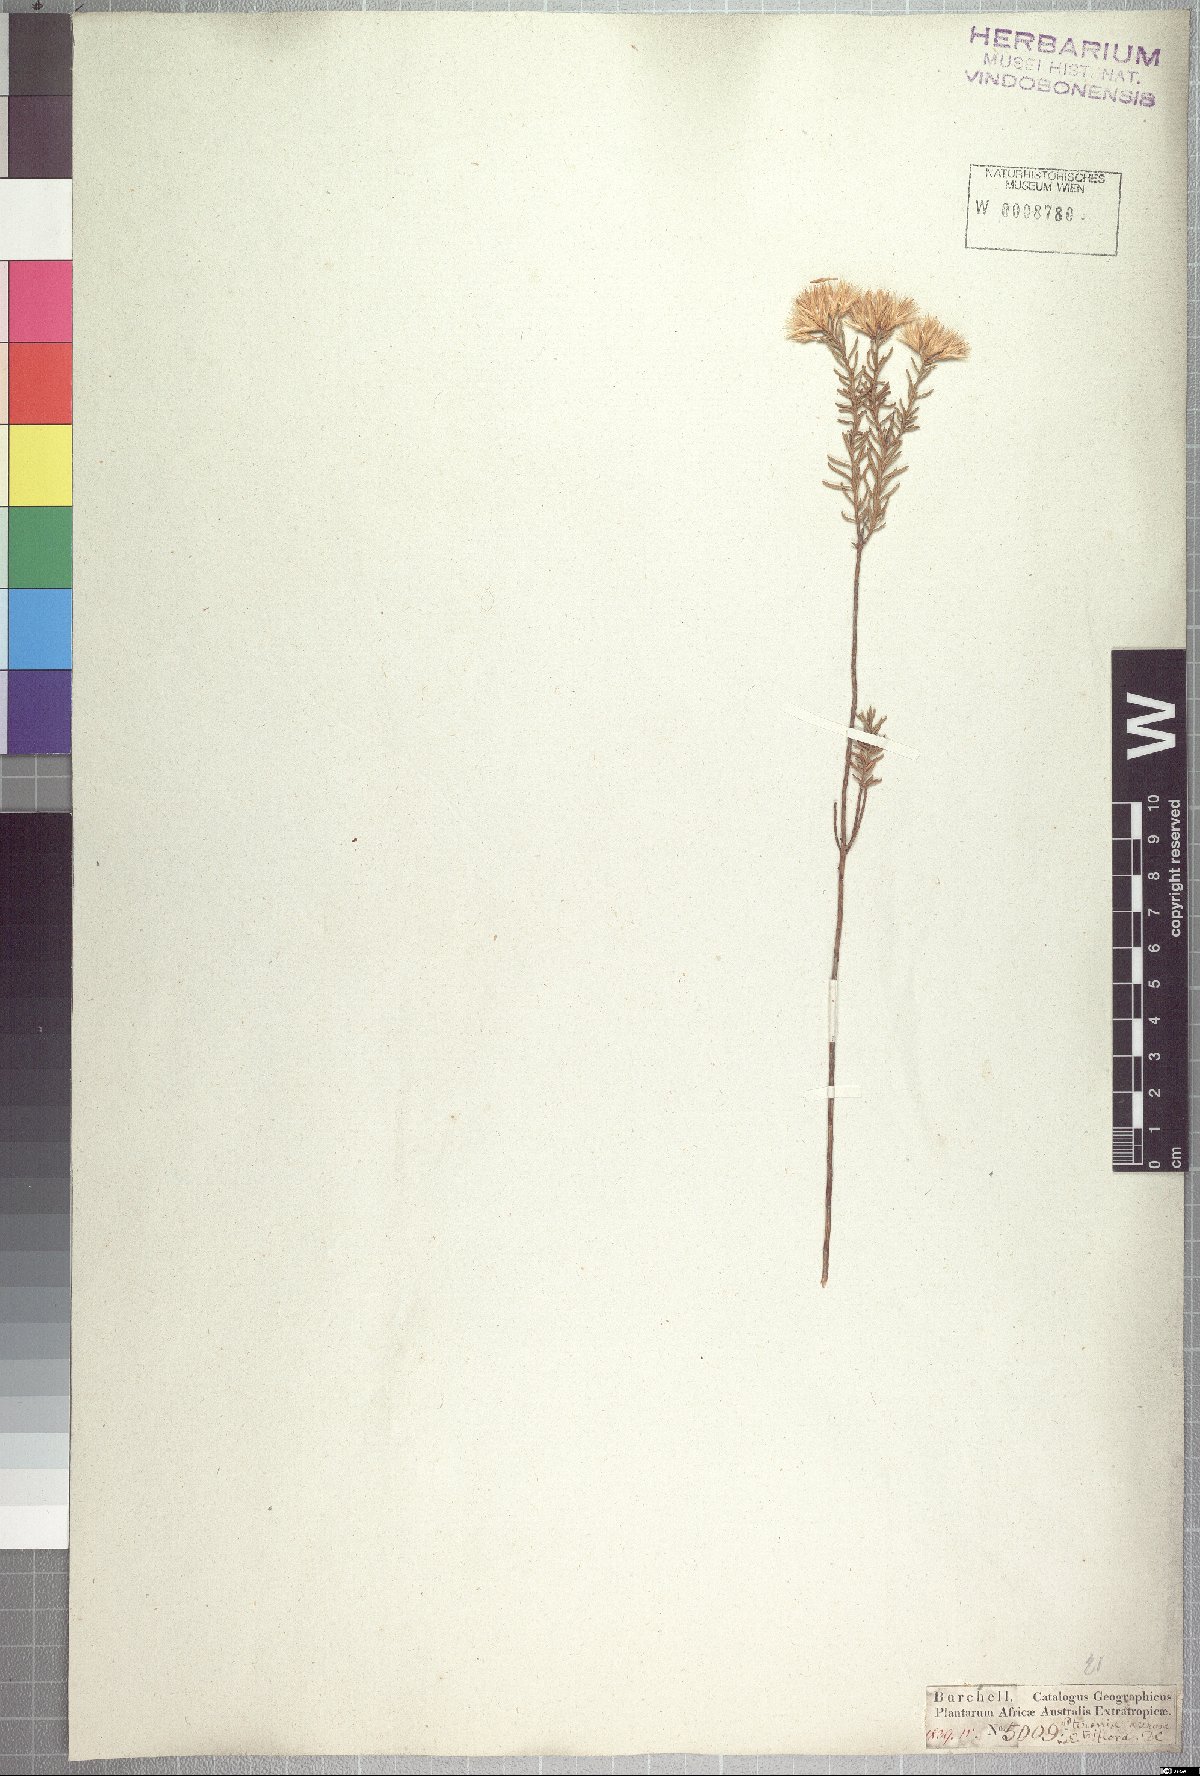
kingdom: Plantae
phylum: Tracheophyta
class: Magnoliopsida
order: Asterales
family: Asteraceae
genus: Pteronia
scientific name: Pteronia teretifolia
